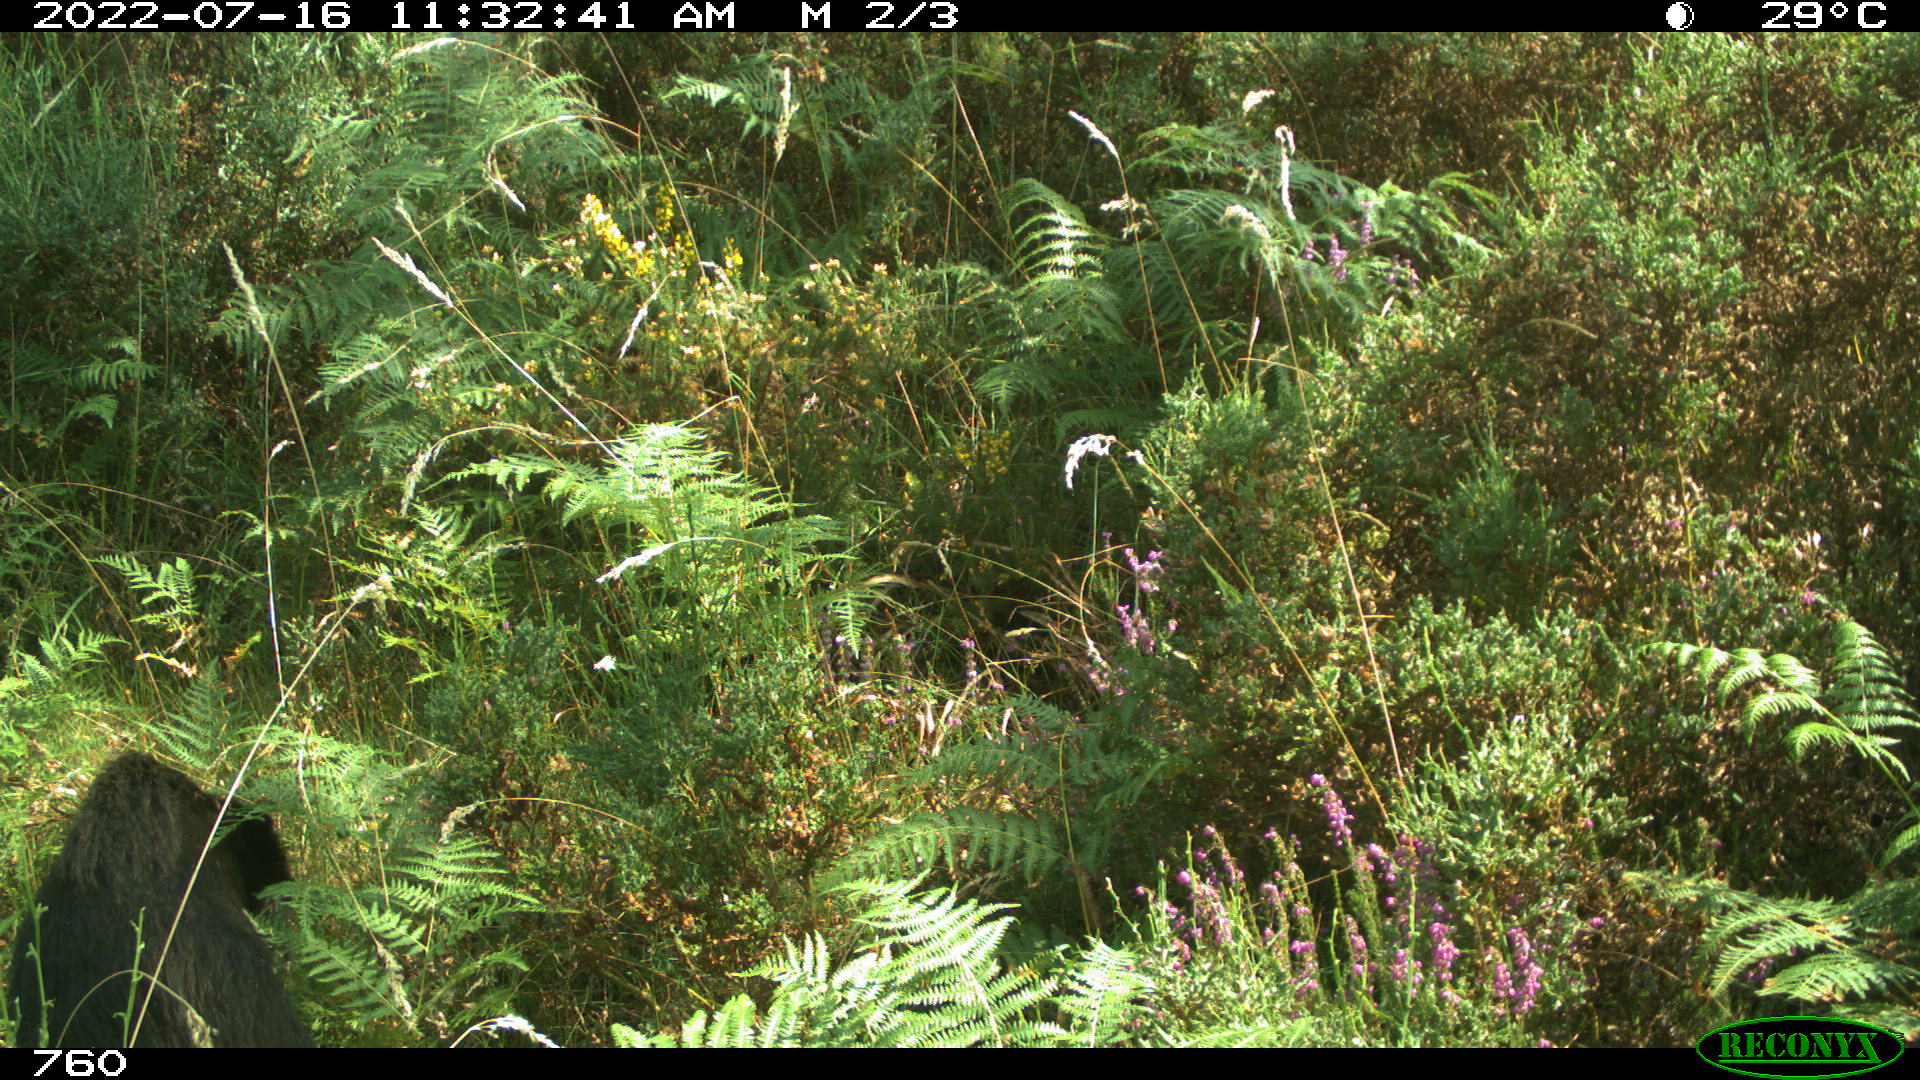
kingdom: Animalia
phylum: Chordata
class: Mammalia
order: Artiodactyla
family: Suidae
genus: Sus
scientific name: Sus scrofa
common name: Wild boar
